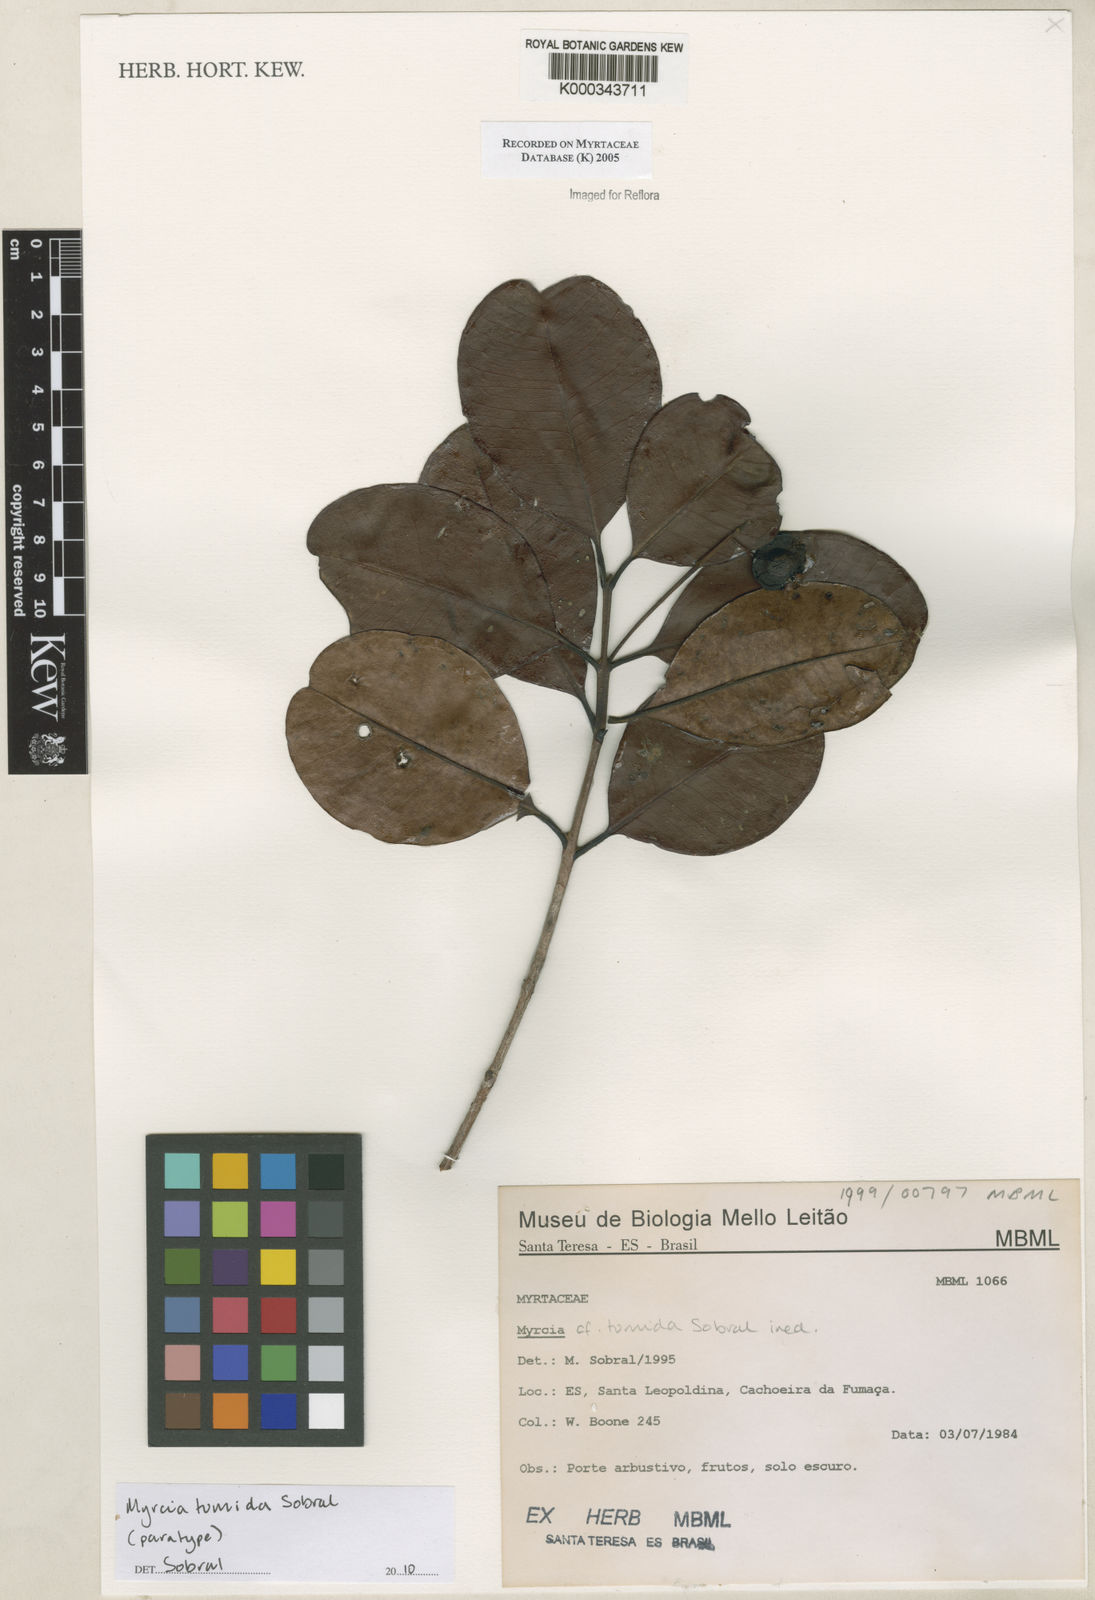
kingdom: Plantae
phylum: Tracheophyta
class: Magnoliopsida
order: Myrtales
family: Myrtaceae
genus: Myrcia
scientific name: Myrcia
